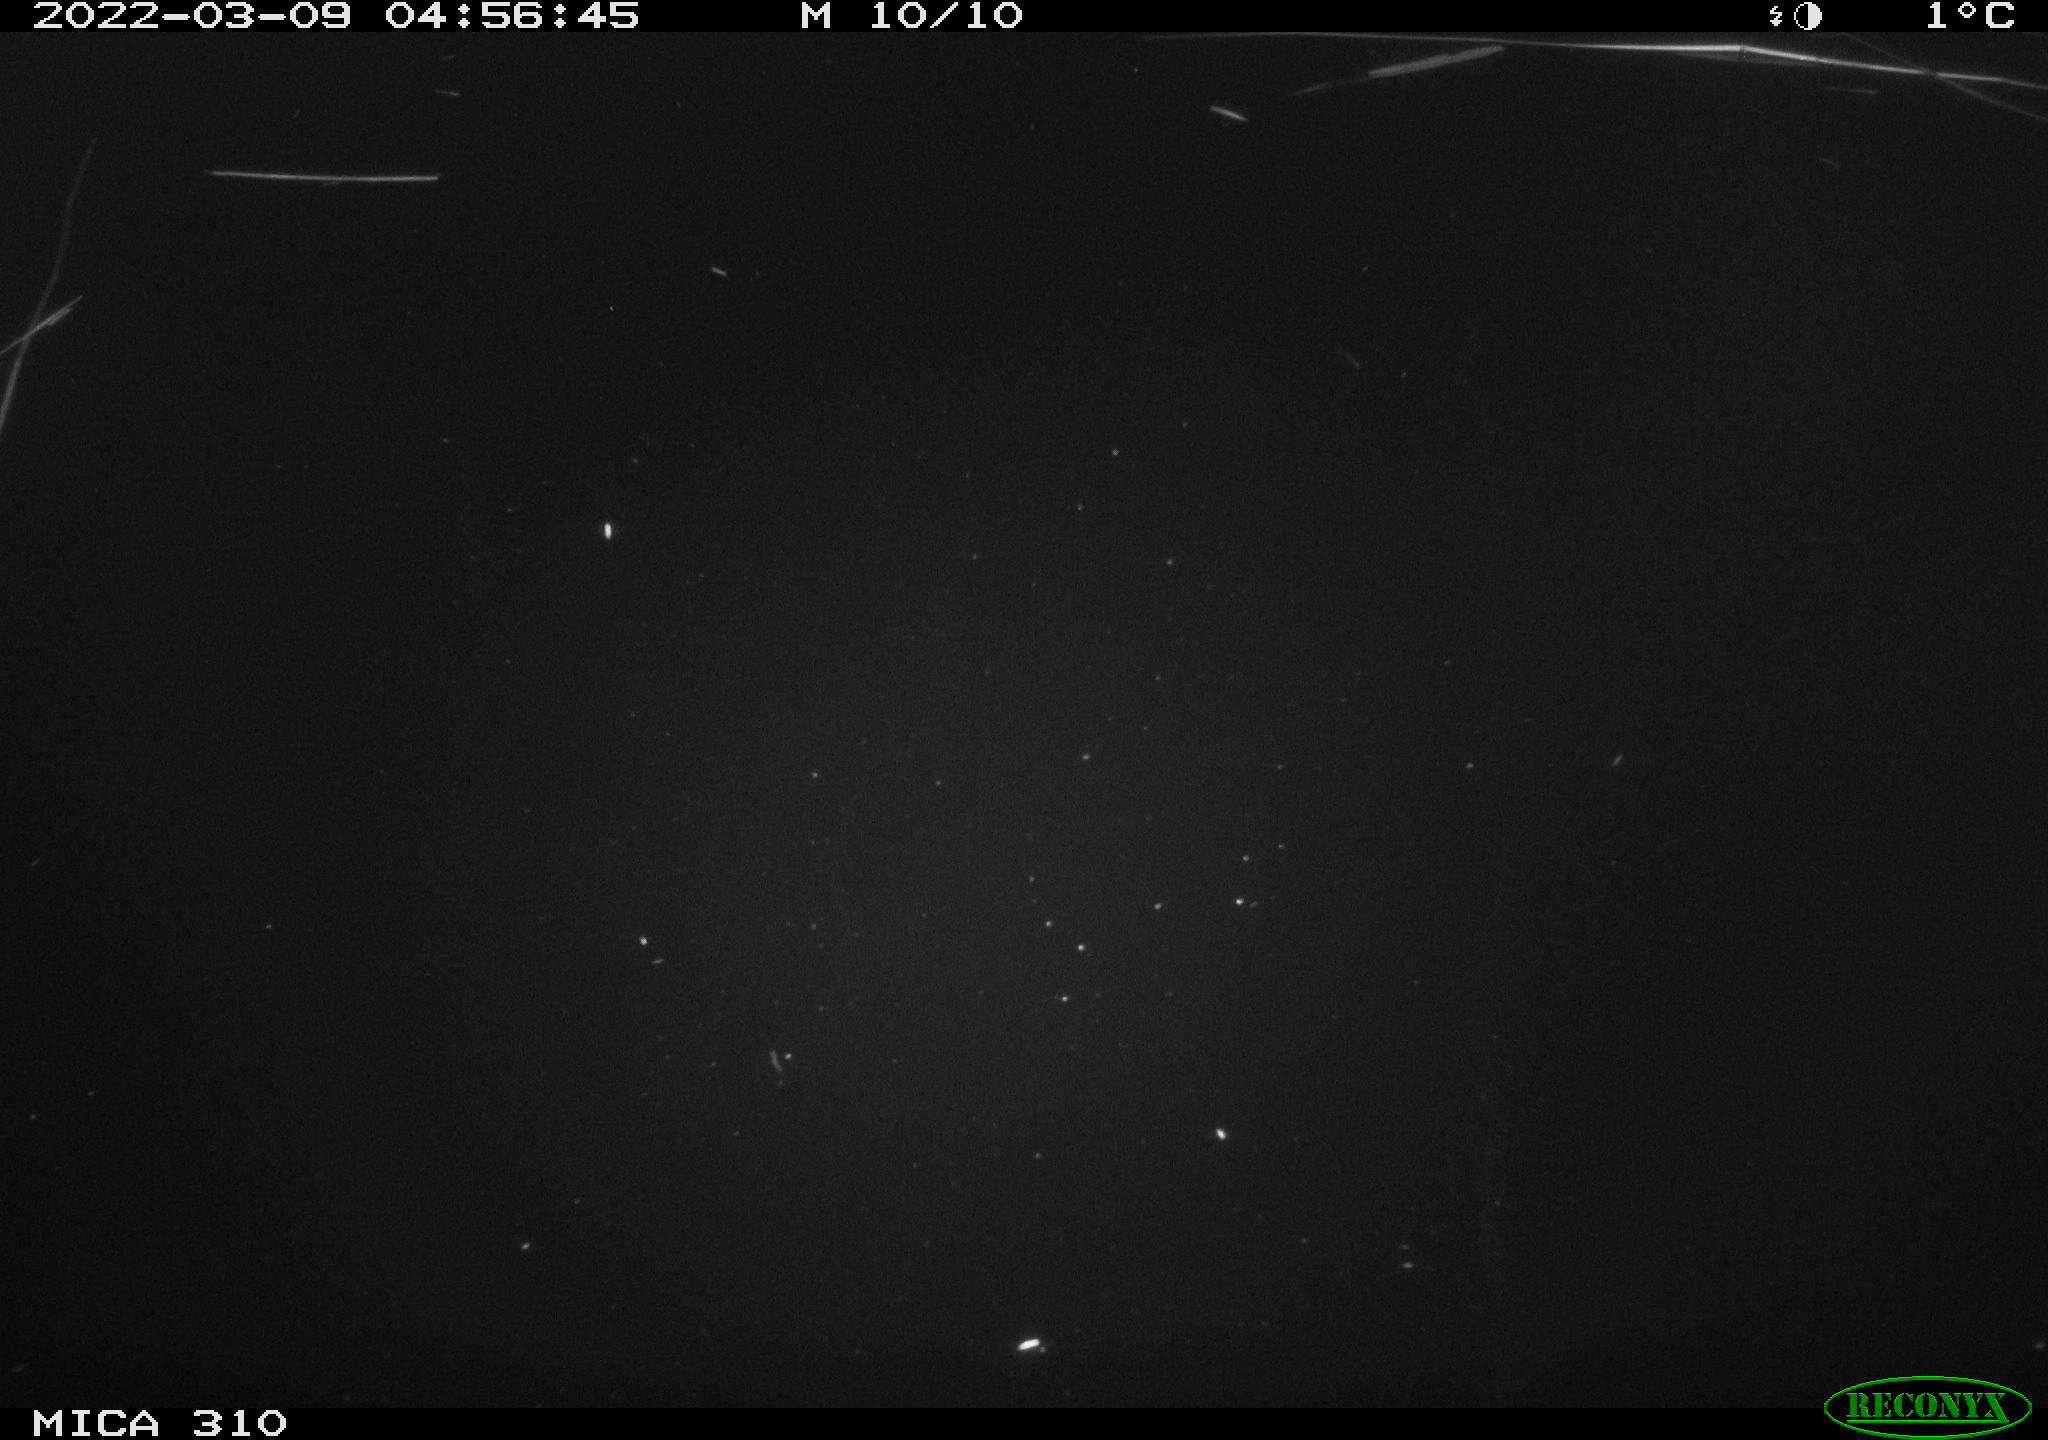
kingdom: Animalia
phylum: Chordata
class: Aves
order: Anseriformes
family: Anatidae
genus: Anas
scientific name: Anas platyrhynchos
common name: Mallard
